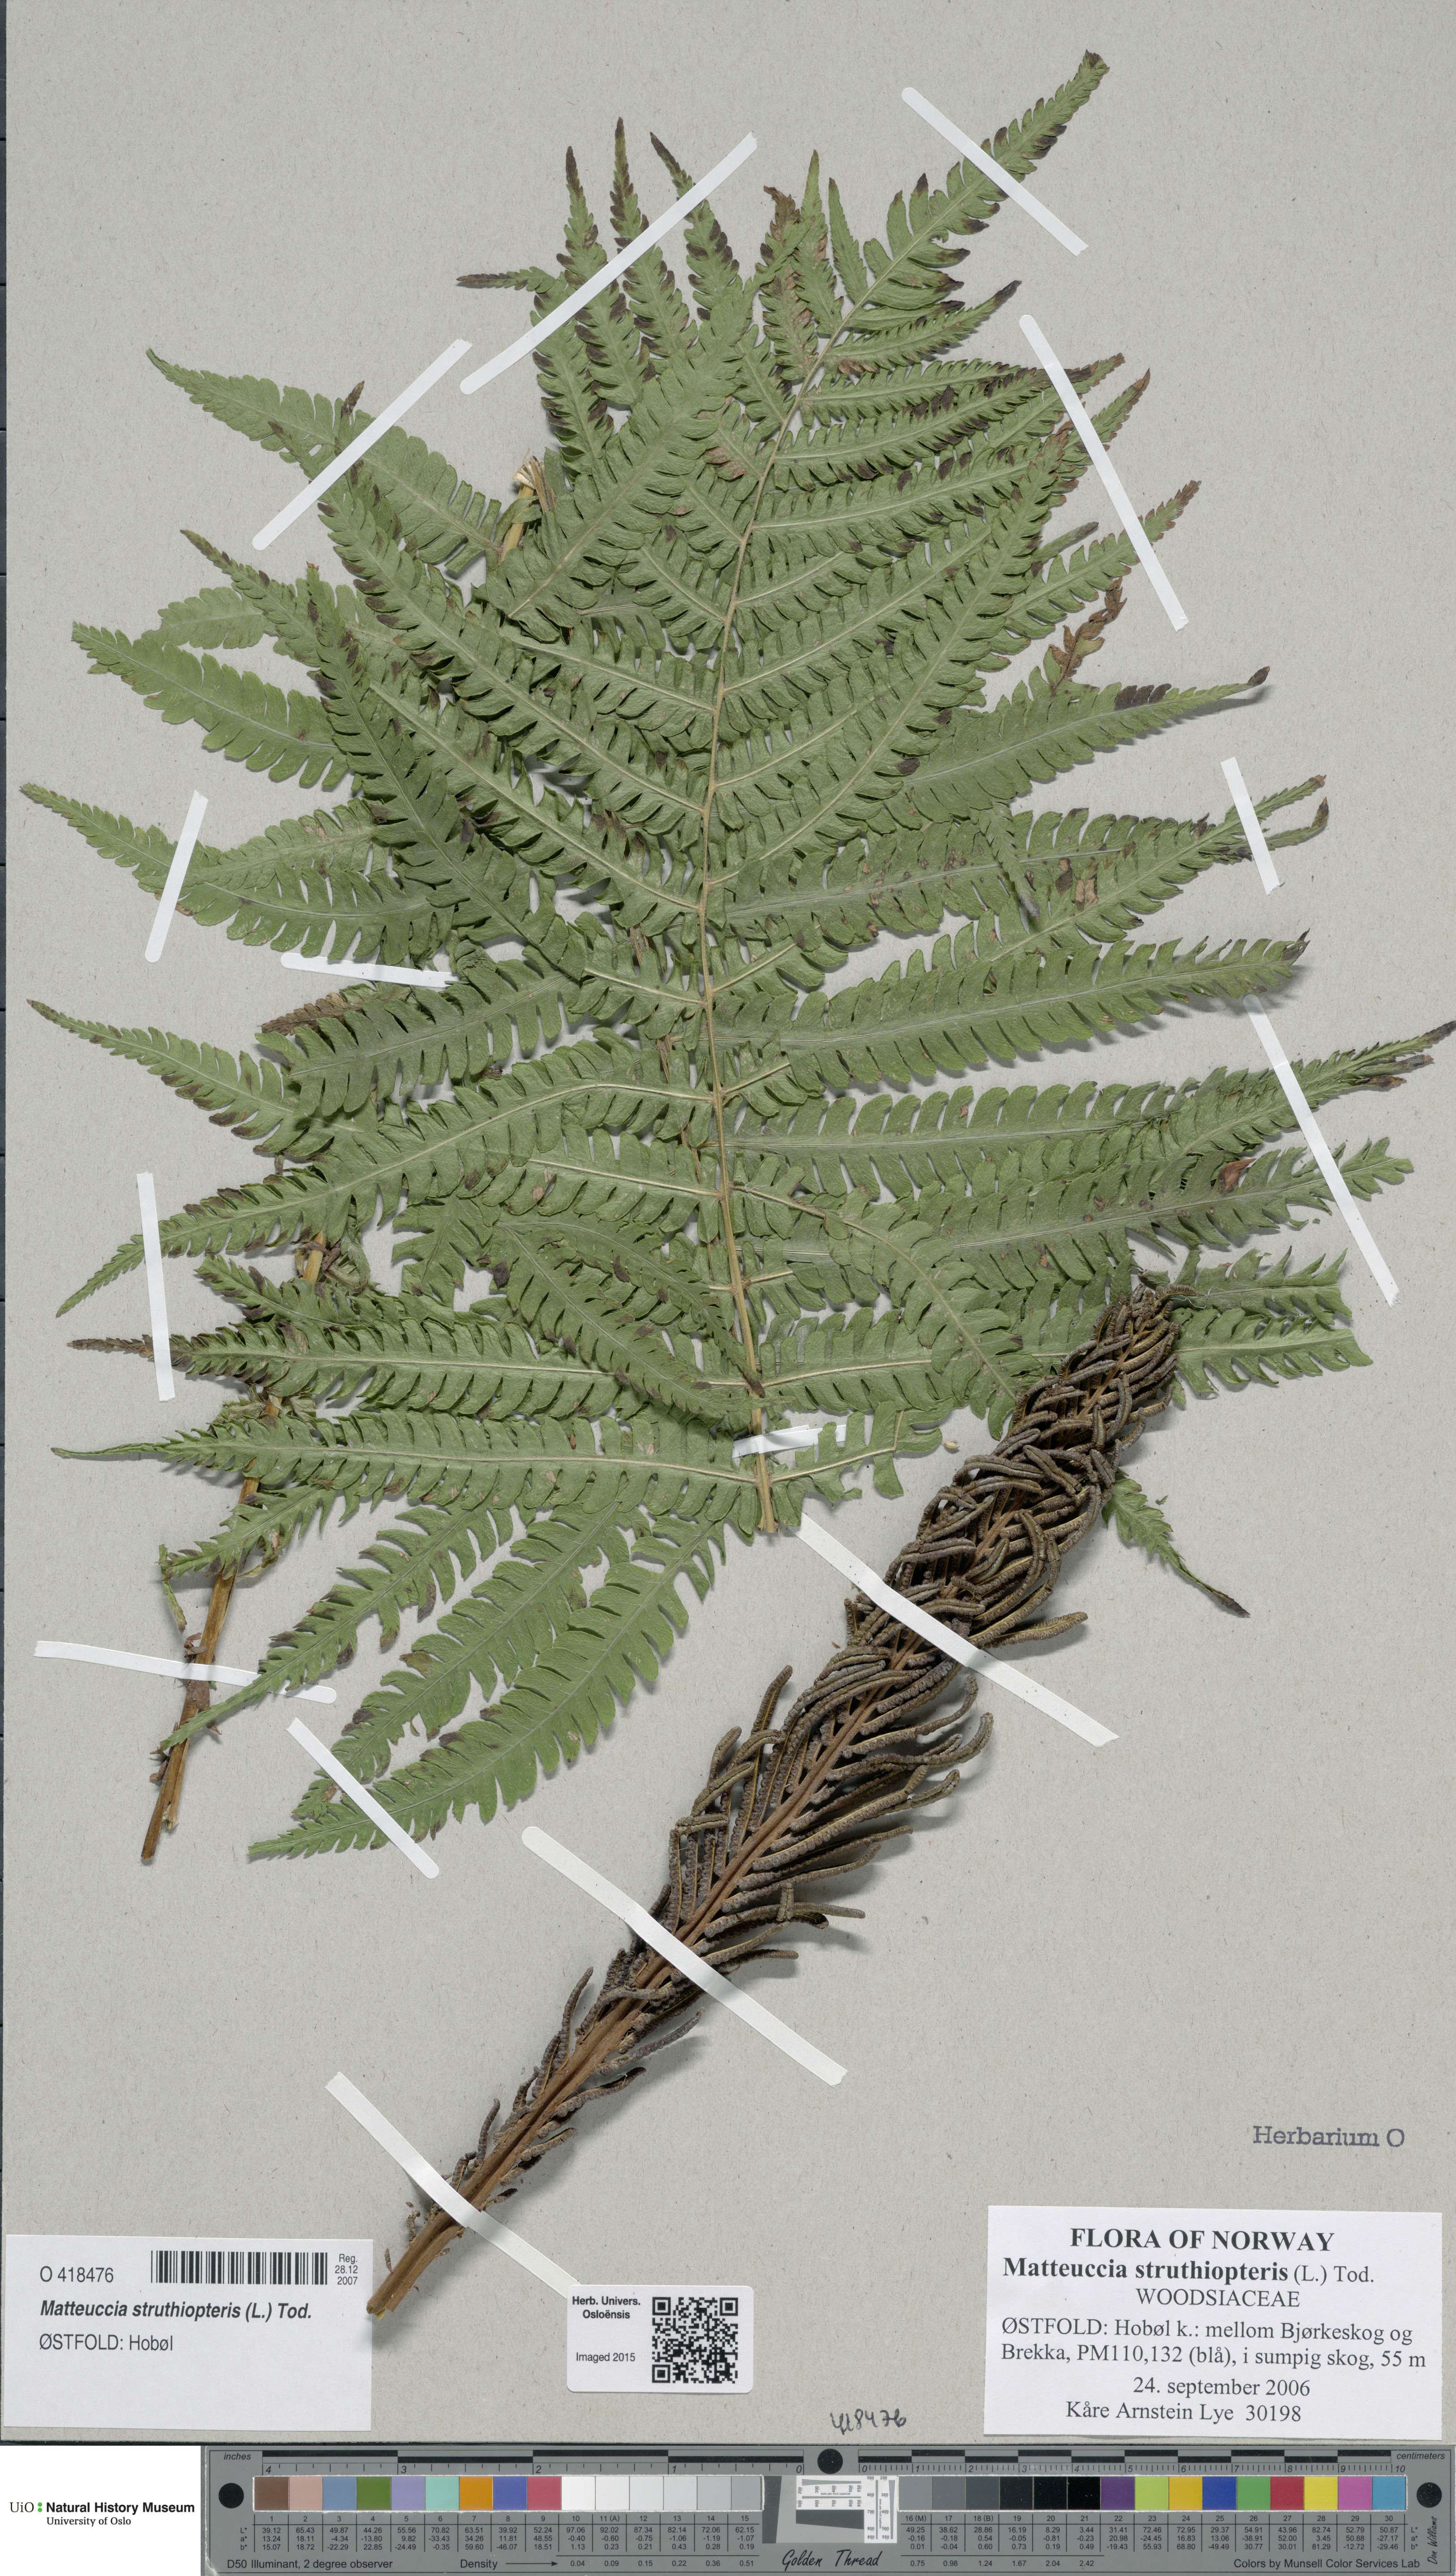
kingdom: Plantae
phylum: Tracheophyta
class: Polypodiopsida
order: Polypodiales
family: Onocleaceae
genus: Matteuccia
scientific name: Matteuccia struthiopteris
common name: Ostrich fern
